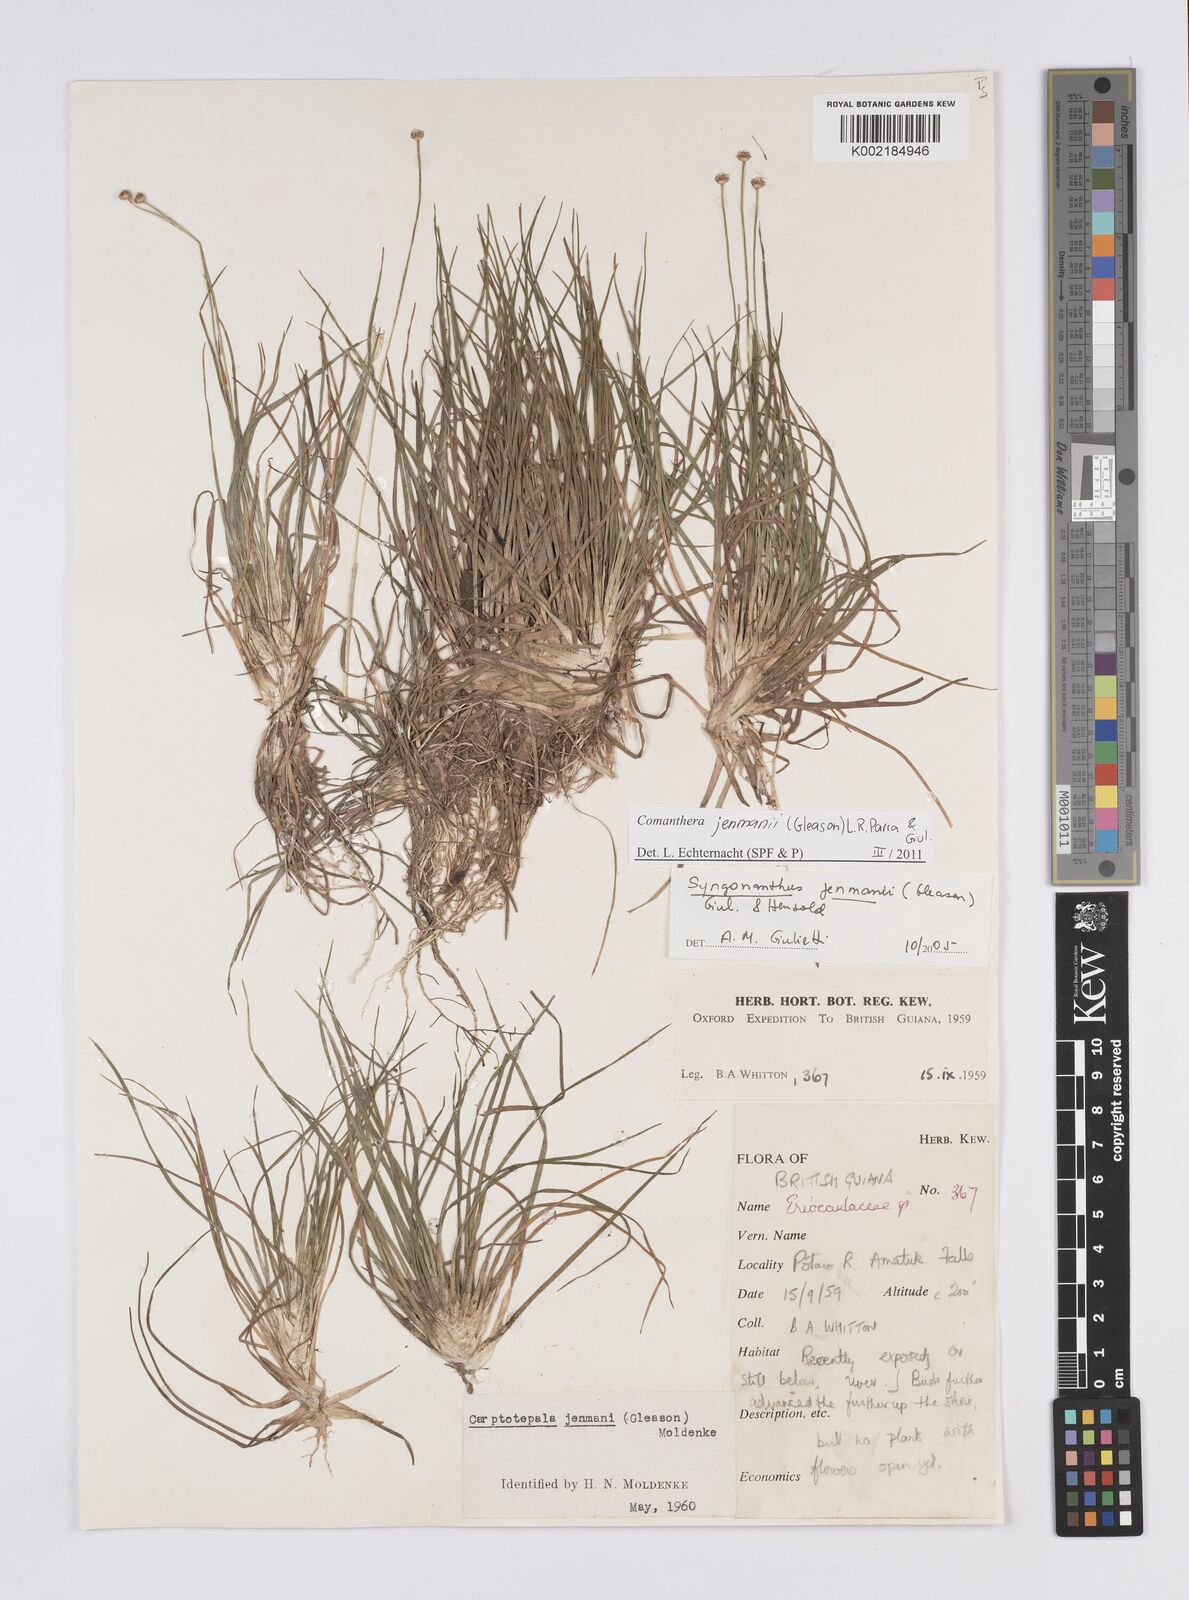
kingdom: Plantae
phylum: Tracheophyta
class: Liliopsida
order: Poales
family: Eriocaulaceae
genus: Comanthera
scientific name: Comanthera jenmanii
